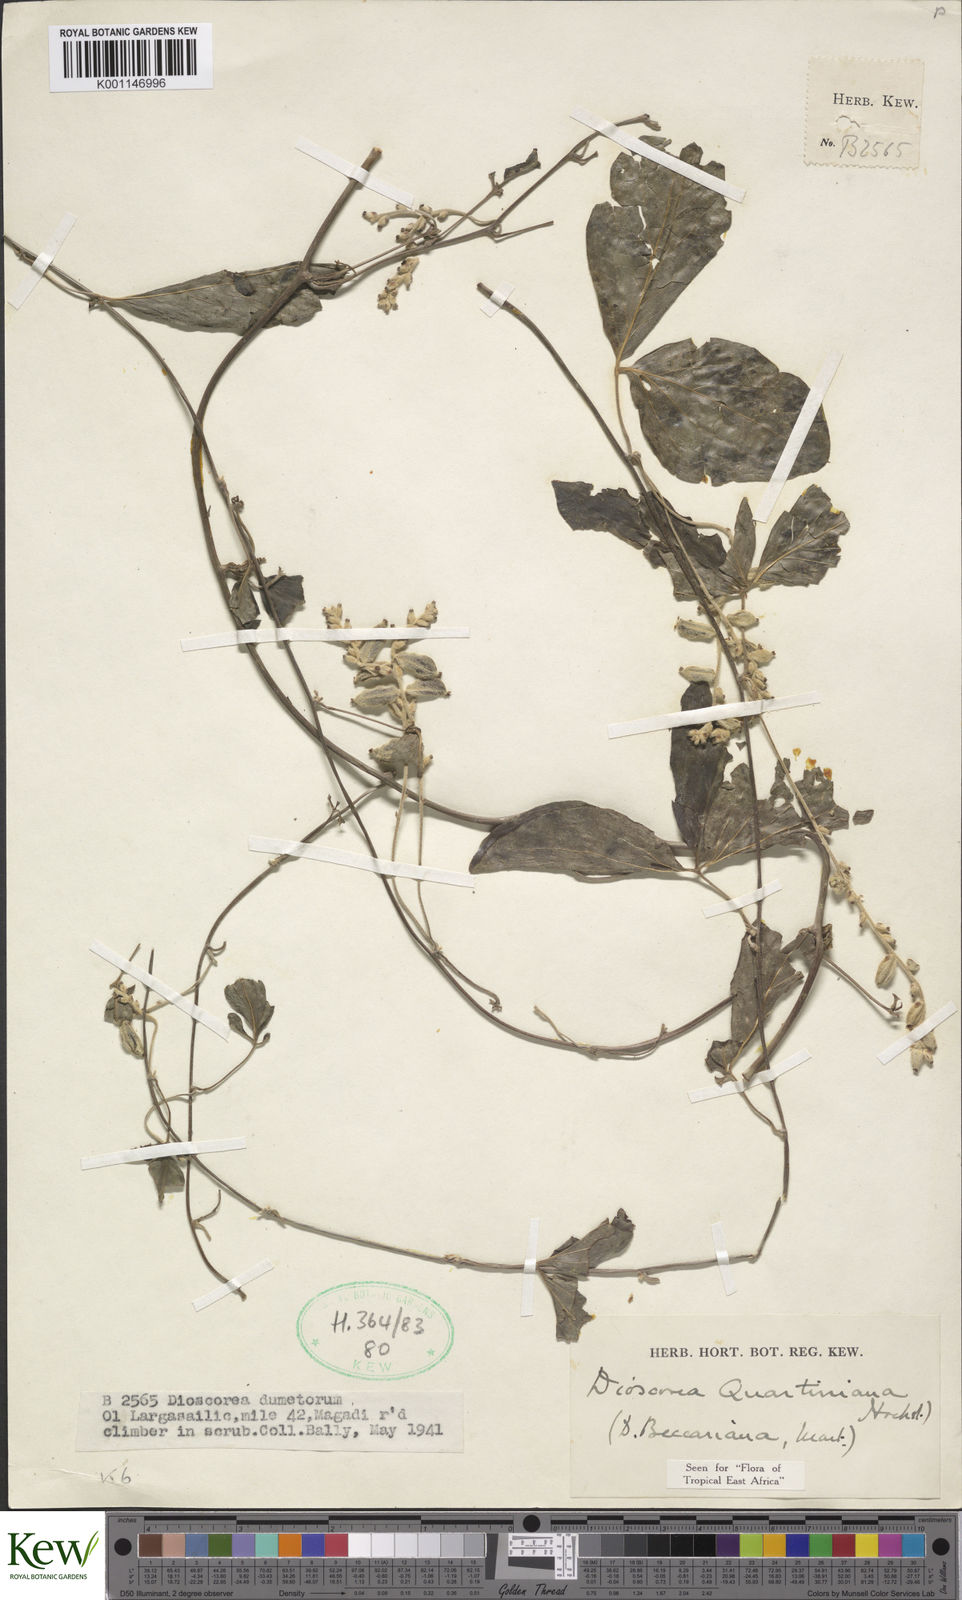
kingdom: Plantae
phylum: Tracheophyta
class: Liliopsida
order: Dioscoreales
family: Dioscoreaceae
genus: Dioscorea
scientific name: Dioscorea quartiniana
